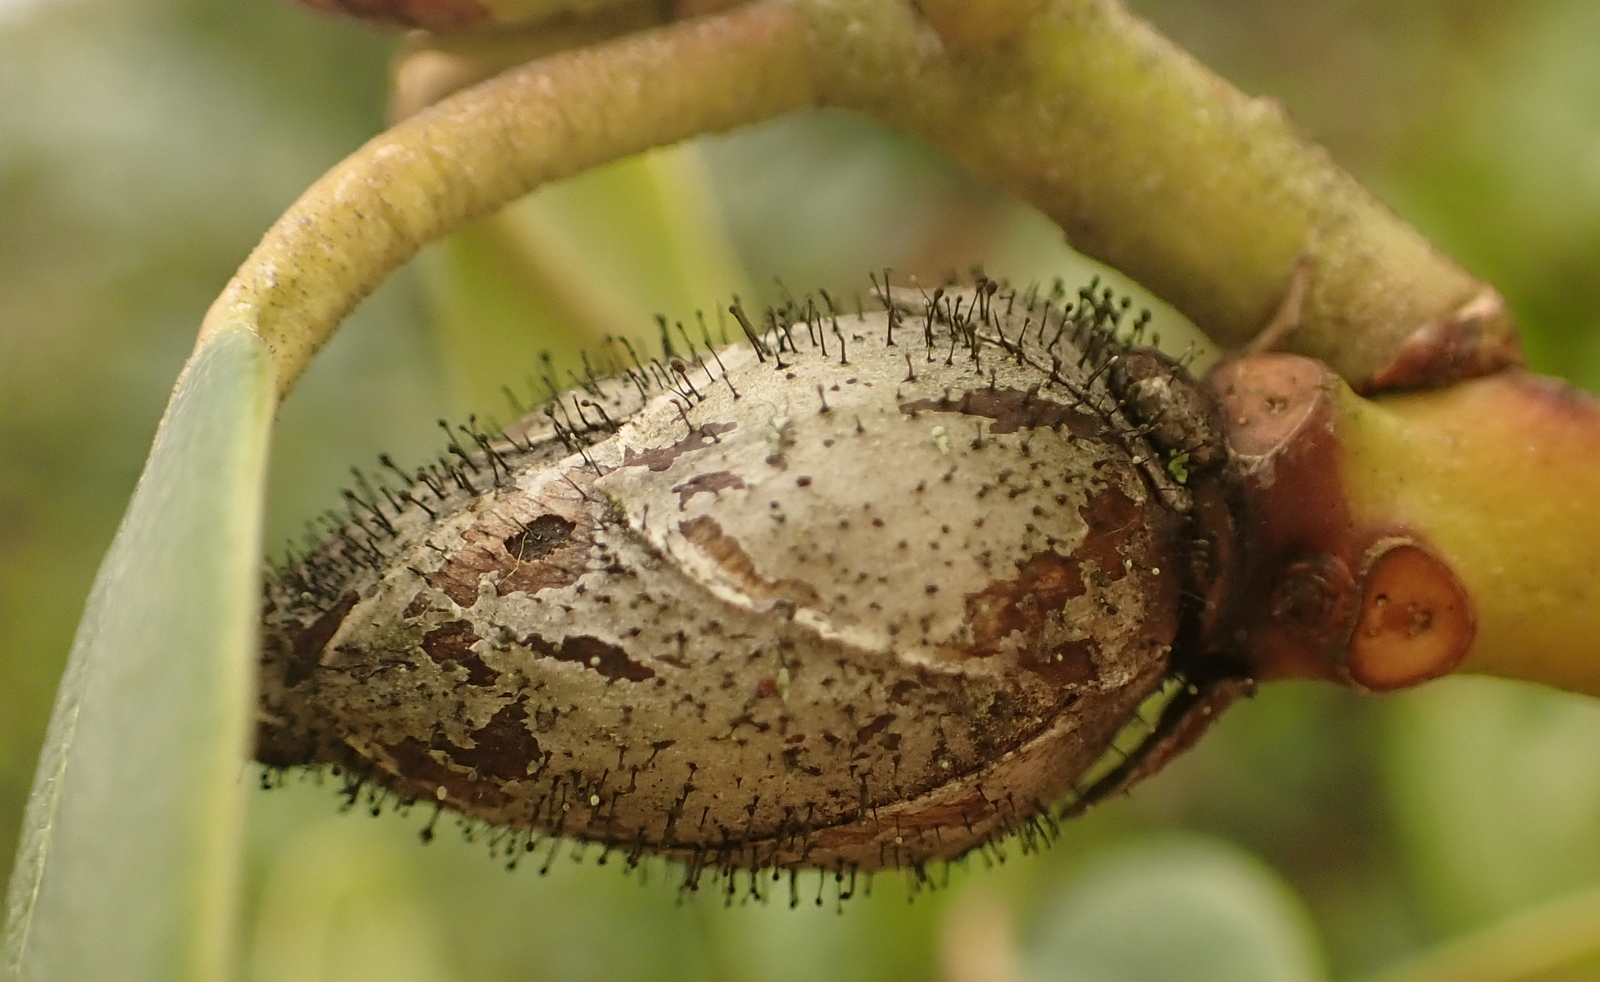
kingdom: Fungi
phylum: Ascomycota
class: Dothideomycetes
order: Pleosporales
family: Melanommataceae
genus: Seifertia
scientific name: Seifertia azaleae
